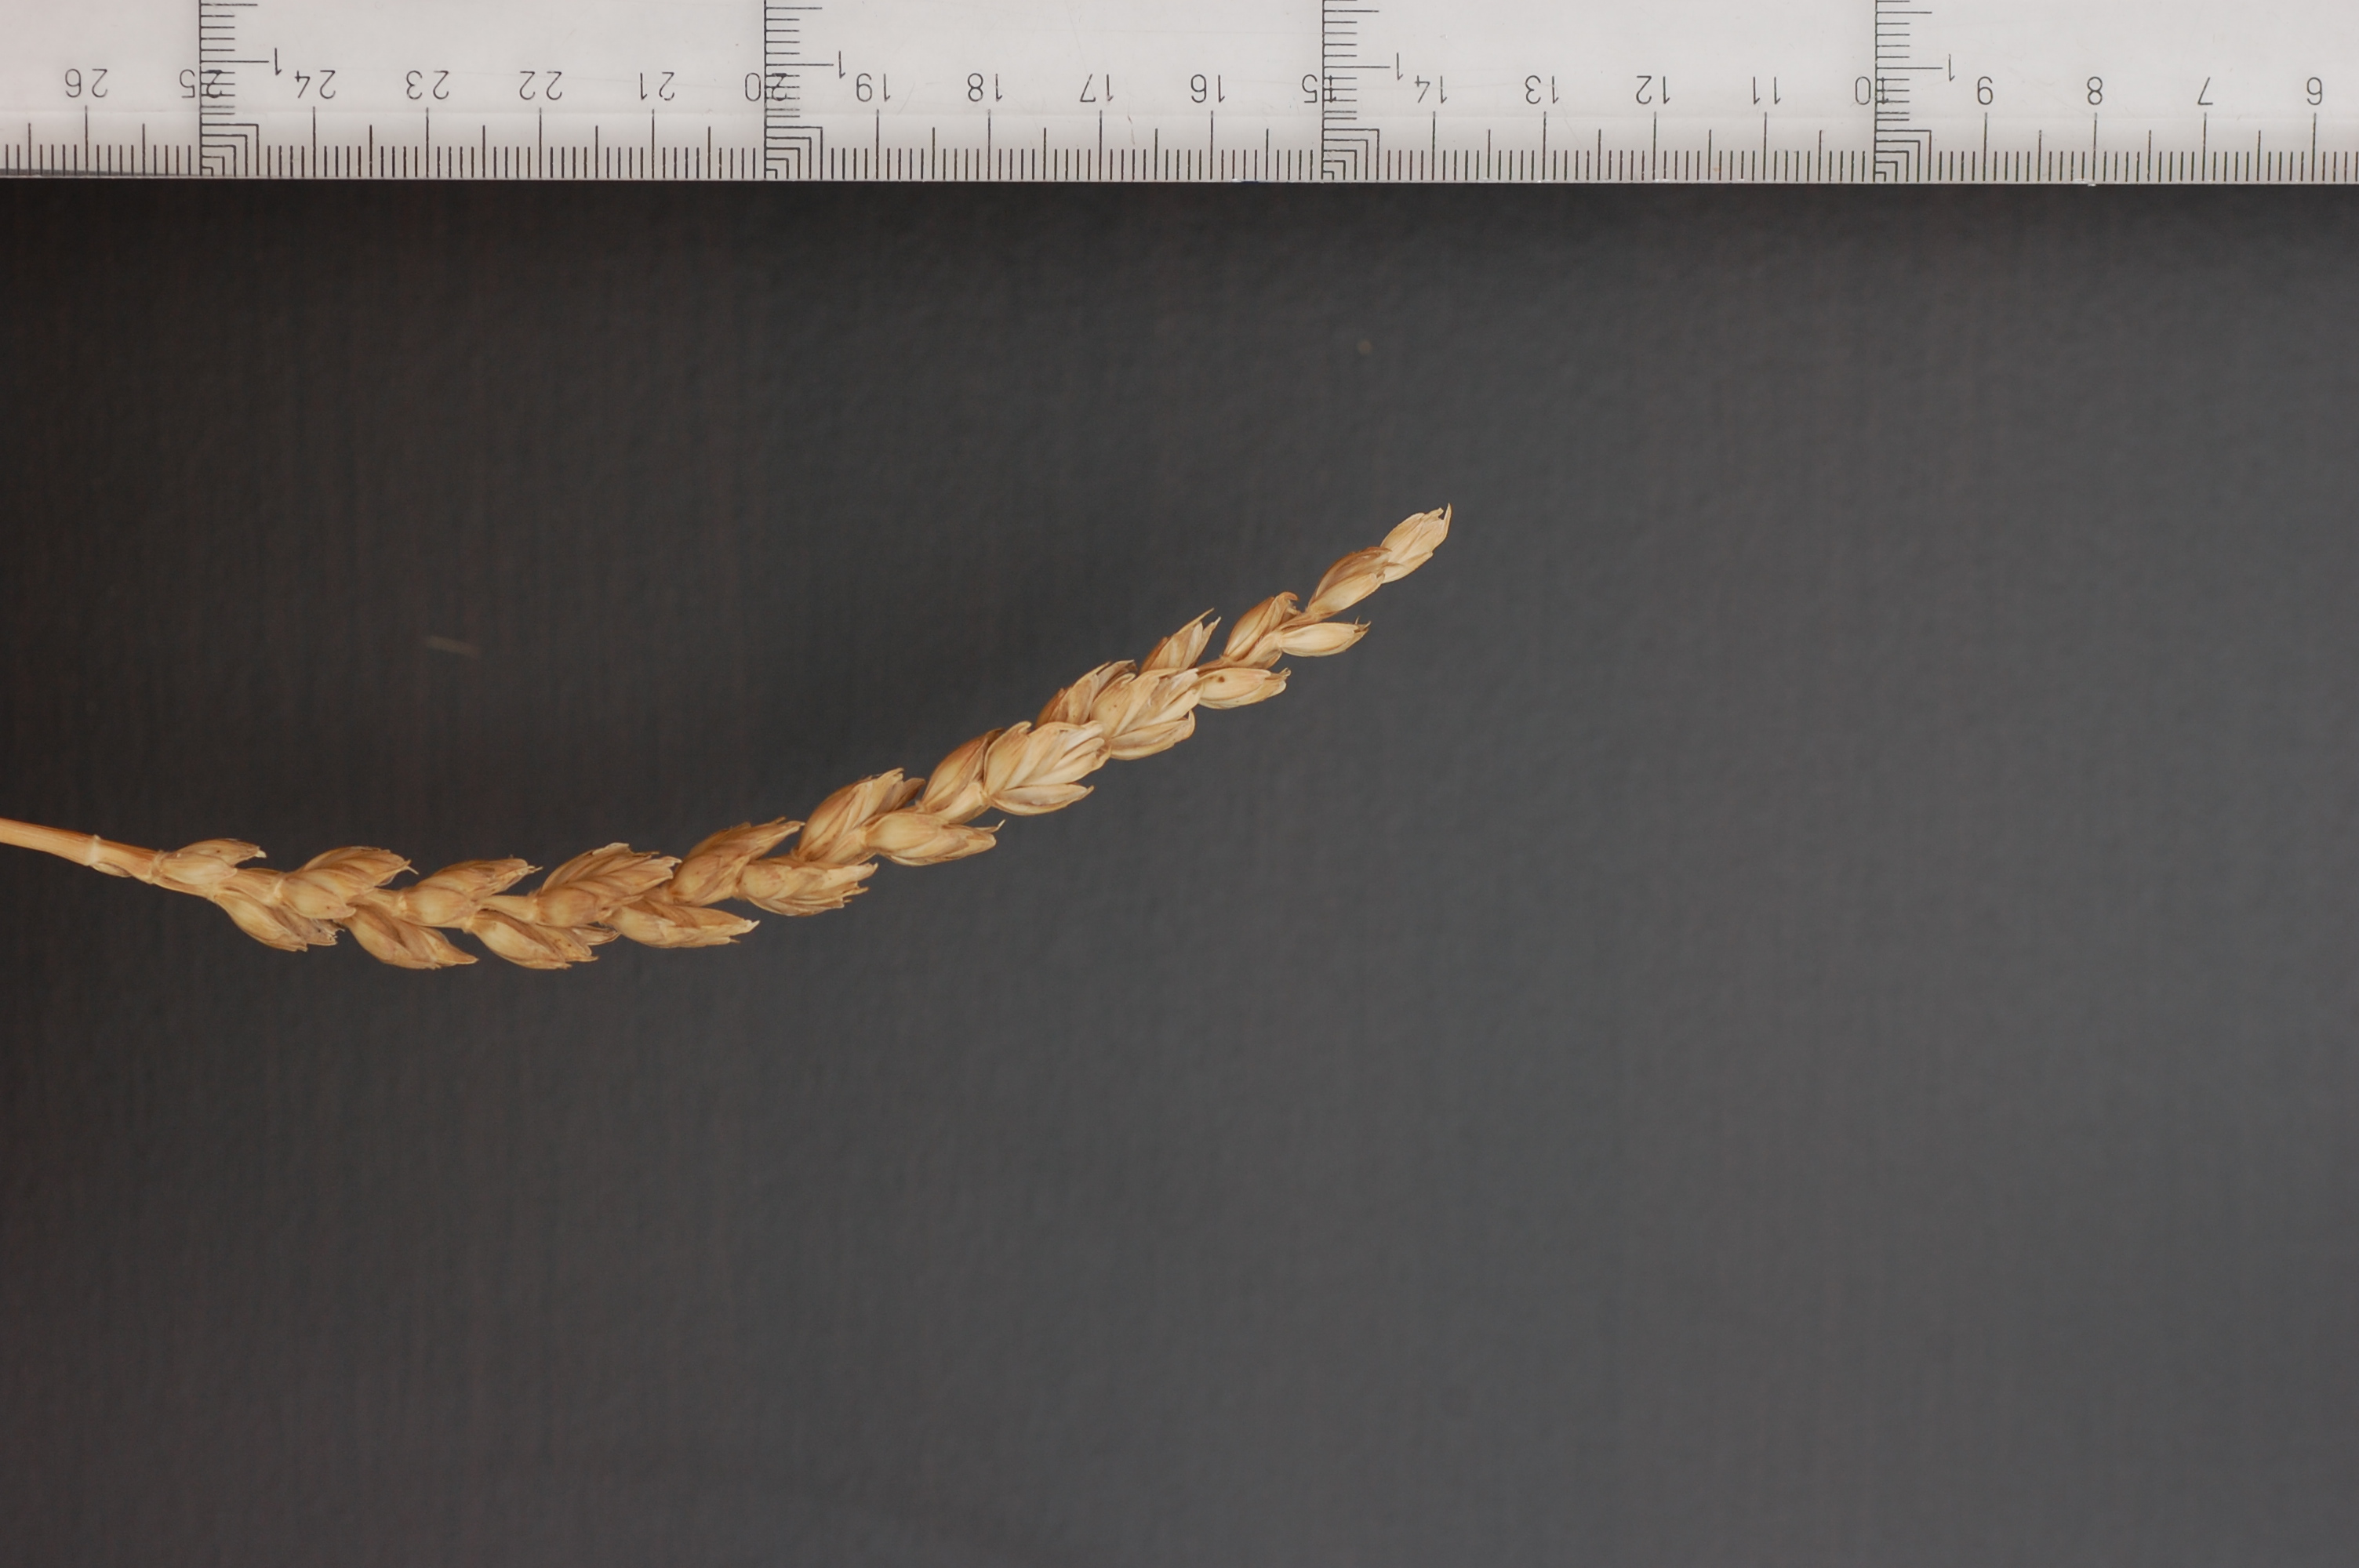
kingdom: Plantae
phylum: Tracheophyta
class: Liliopsida
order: Poales
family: Poaceae
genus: Triticum
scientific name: Triticum aestivum
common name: Common wheat
